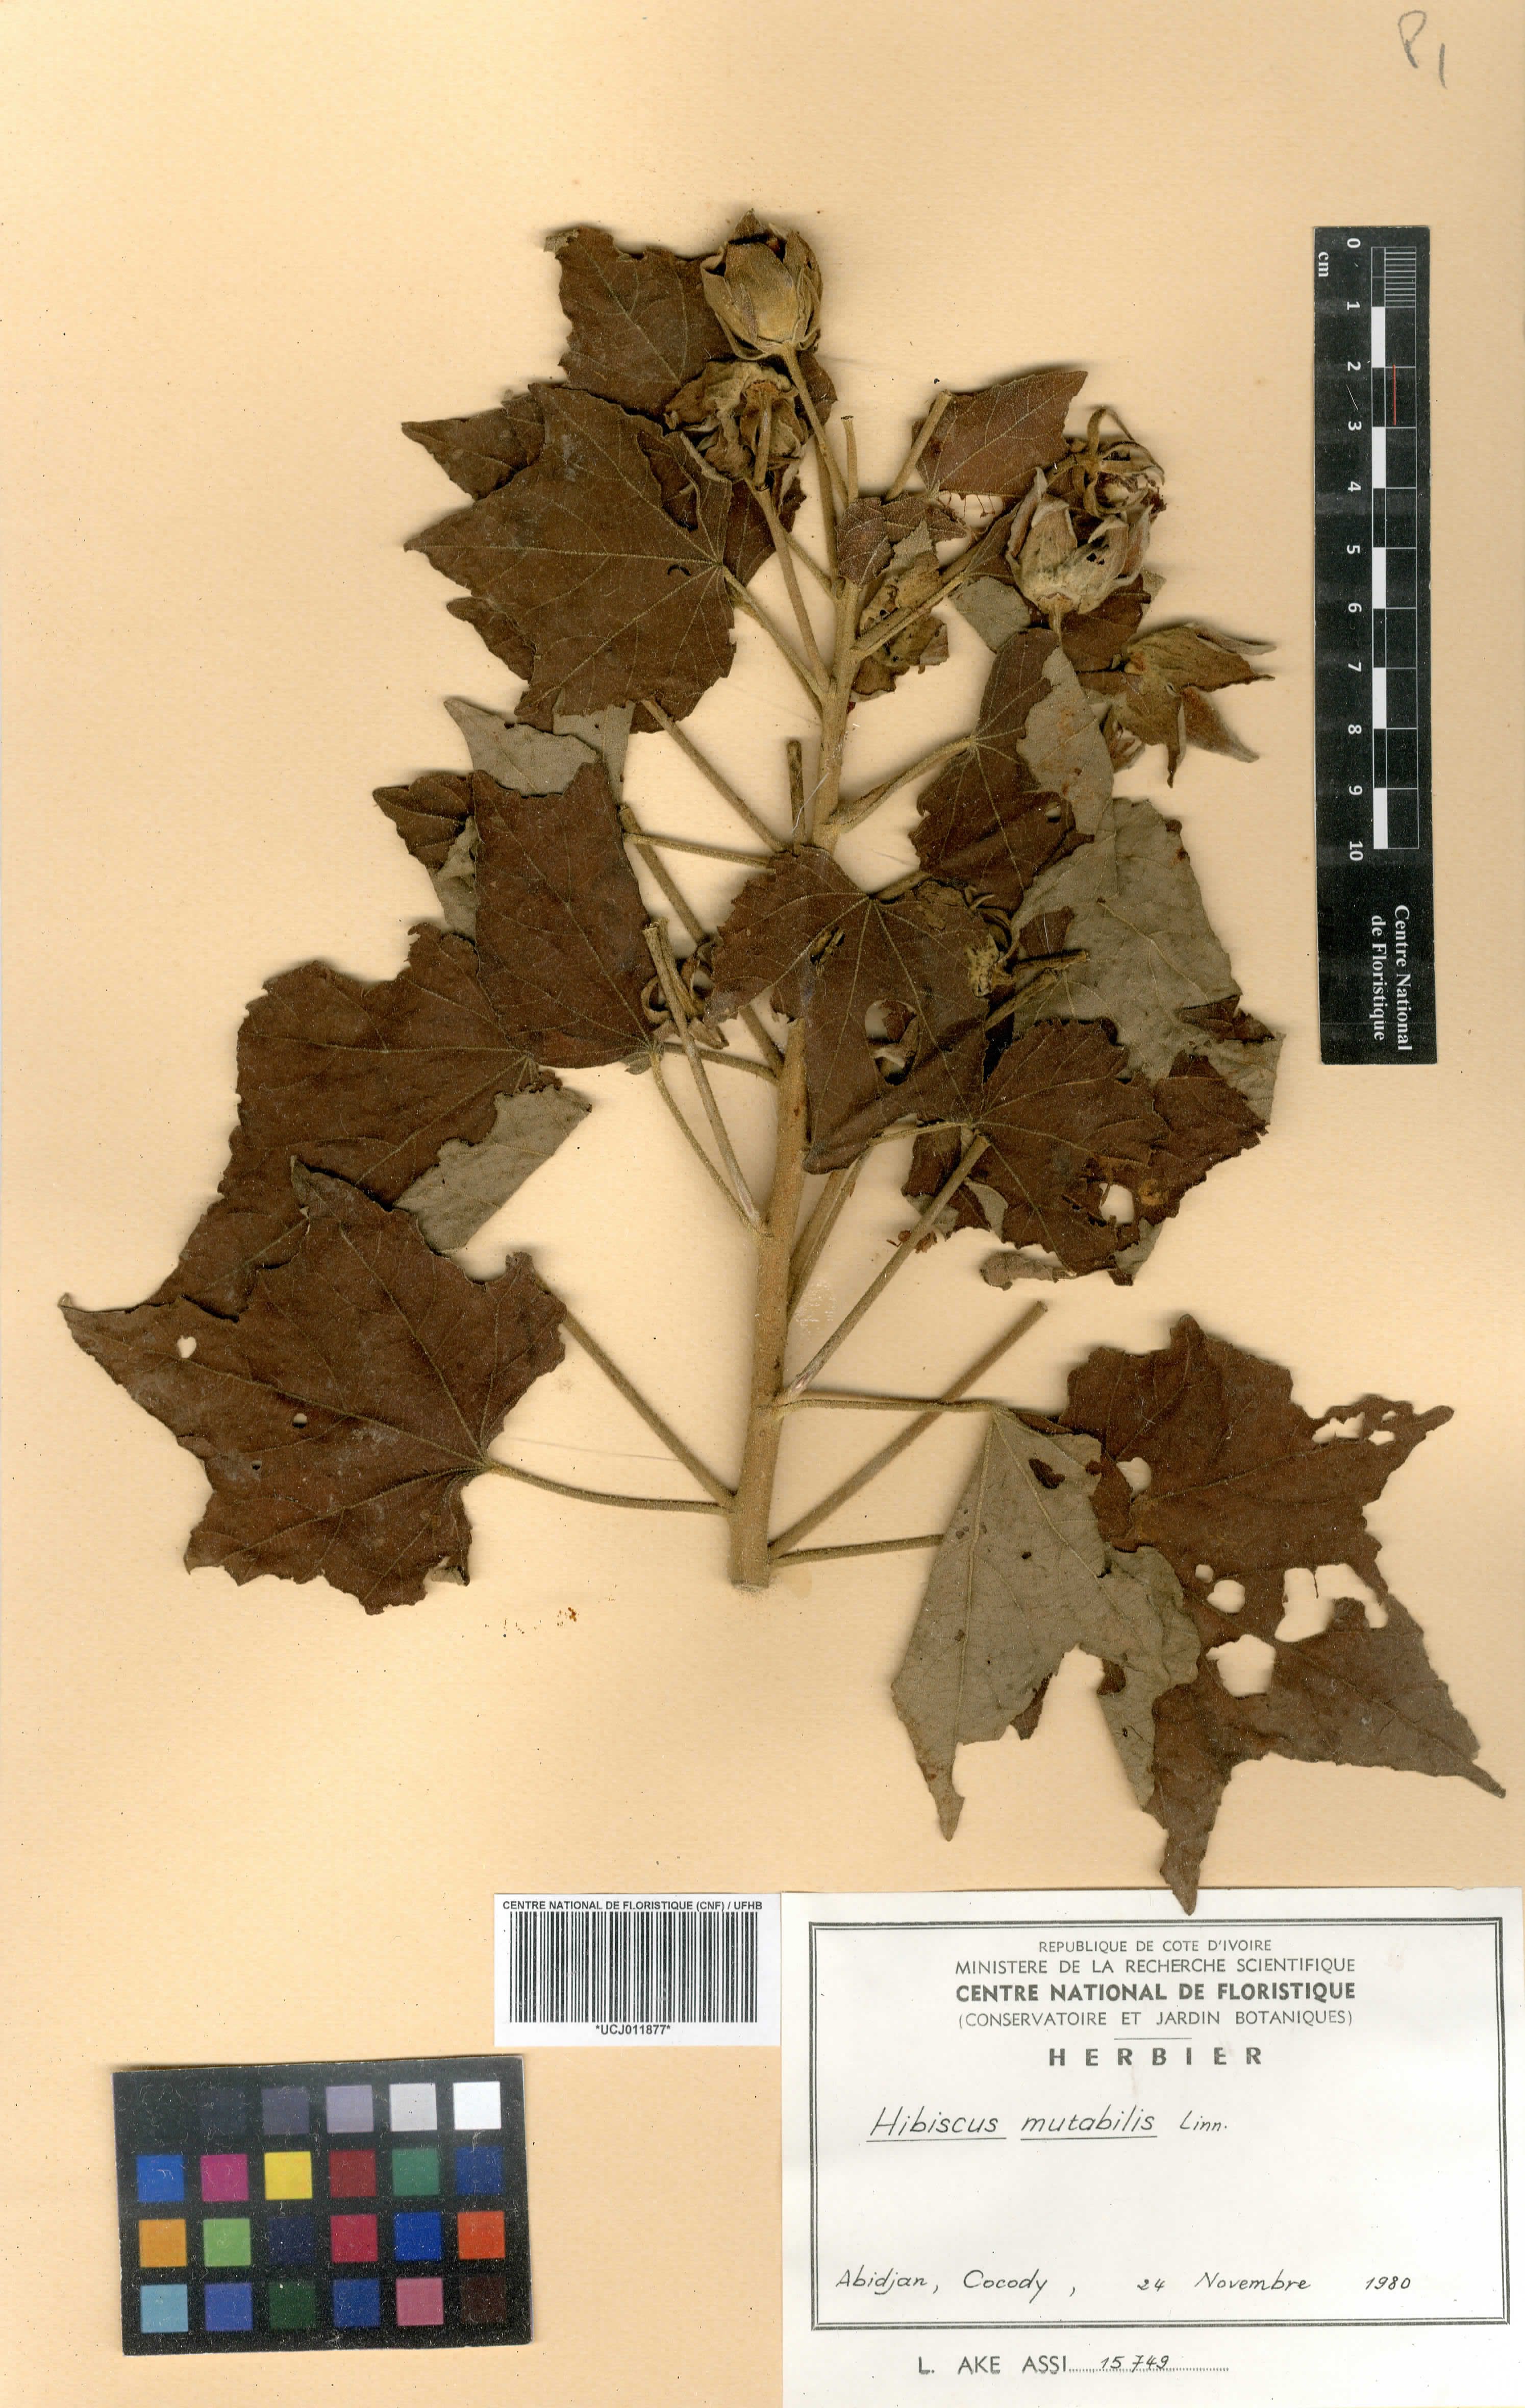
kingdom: Plantae
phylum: Tracheophyta
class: Magnoliopsida
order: Malvales
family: Malvaceae
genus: Hibiscus
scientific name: Hibiscus mutabilis
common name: Dixie rosemallow
